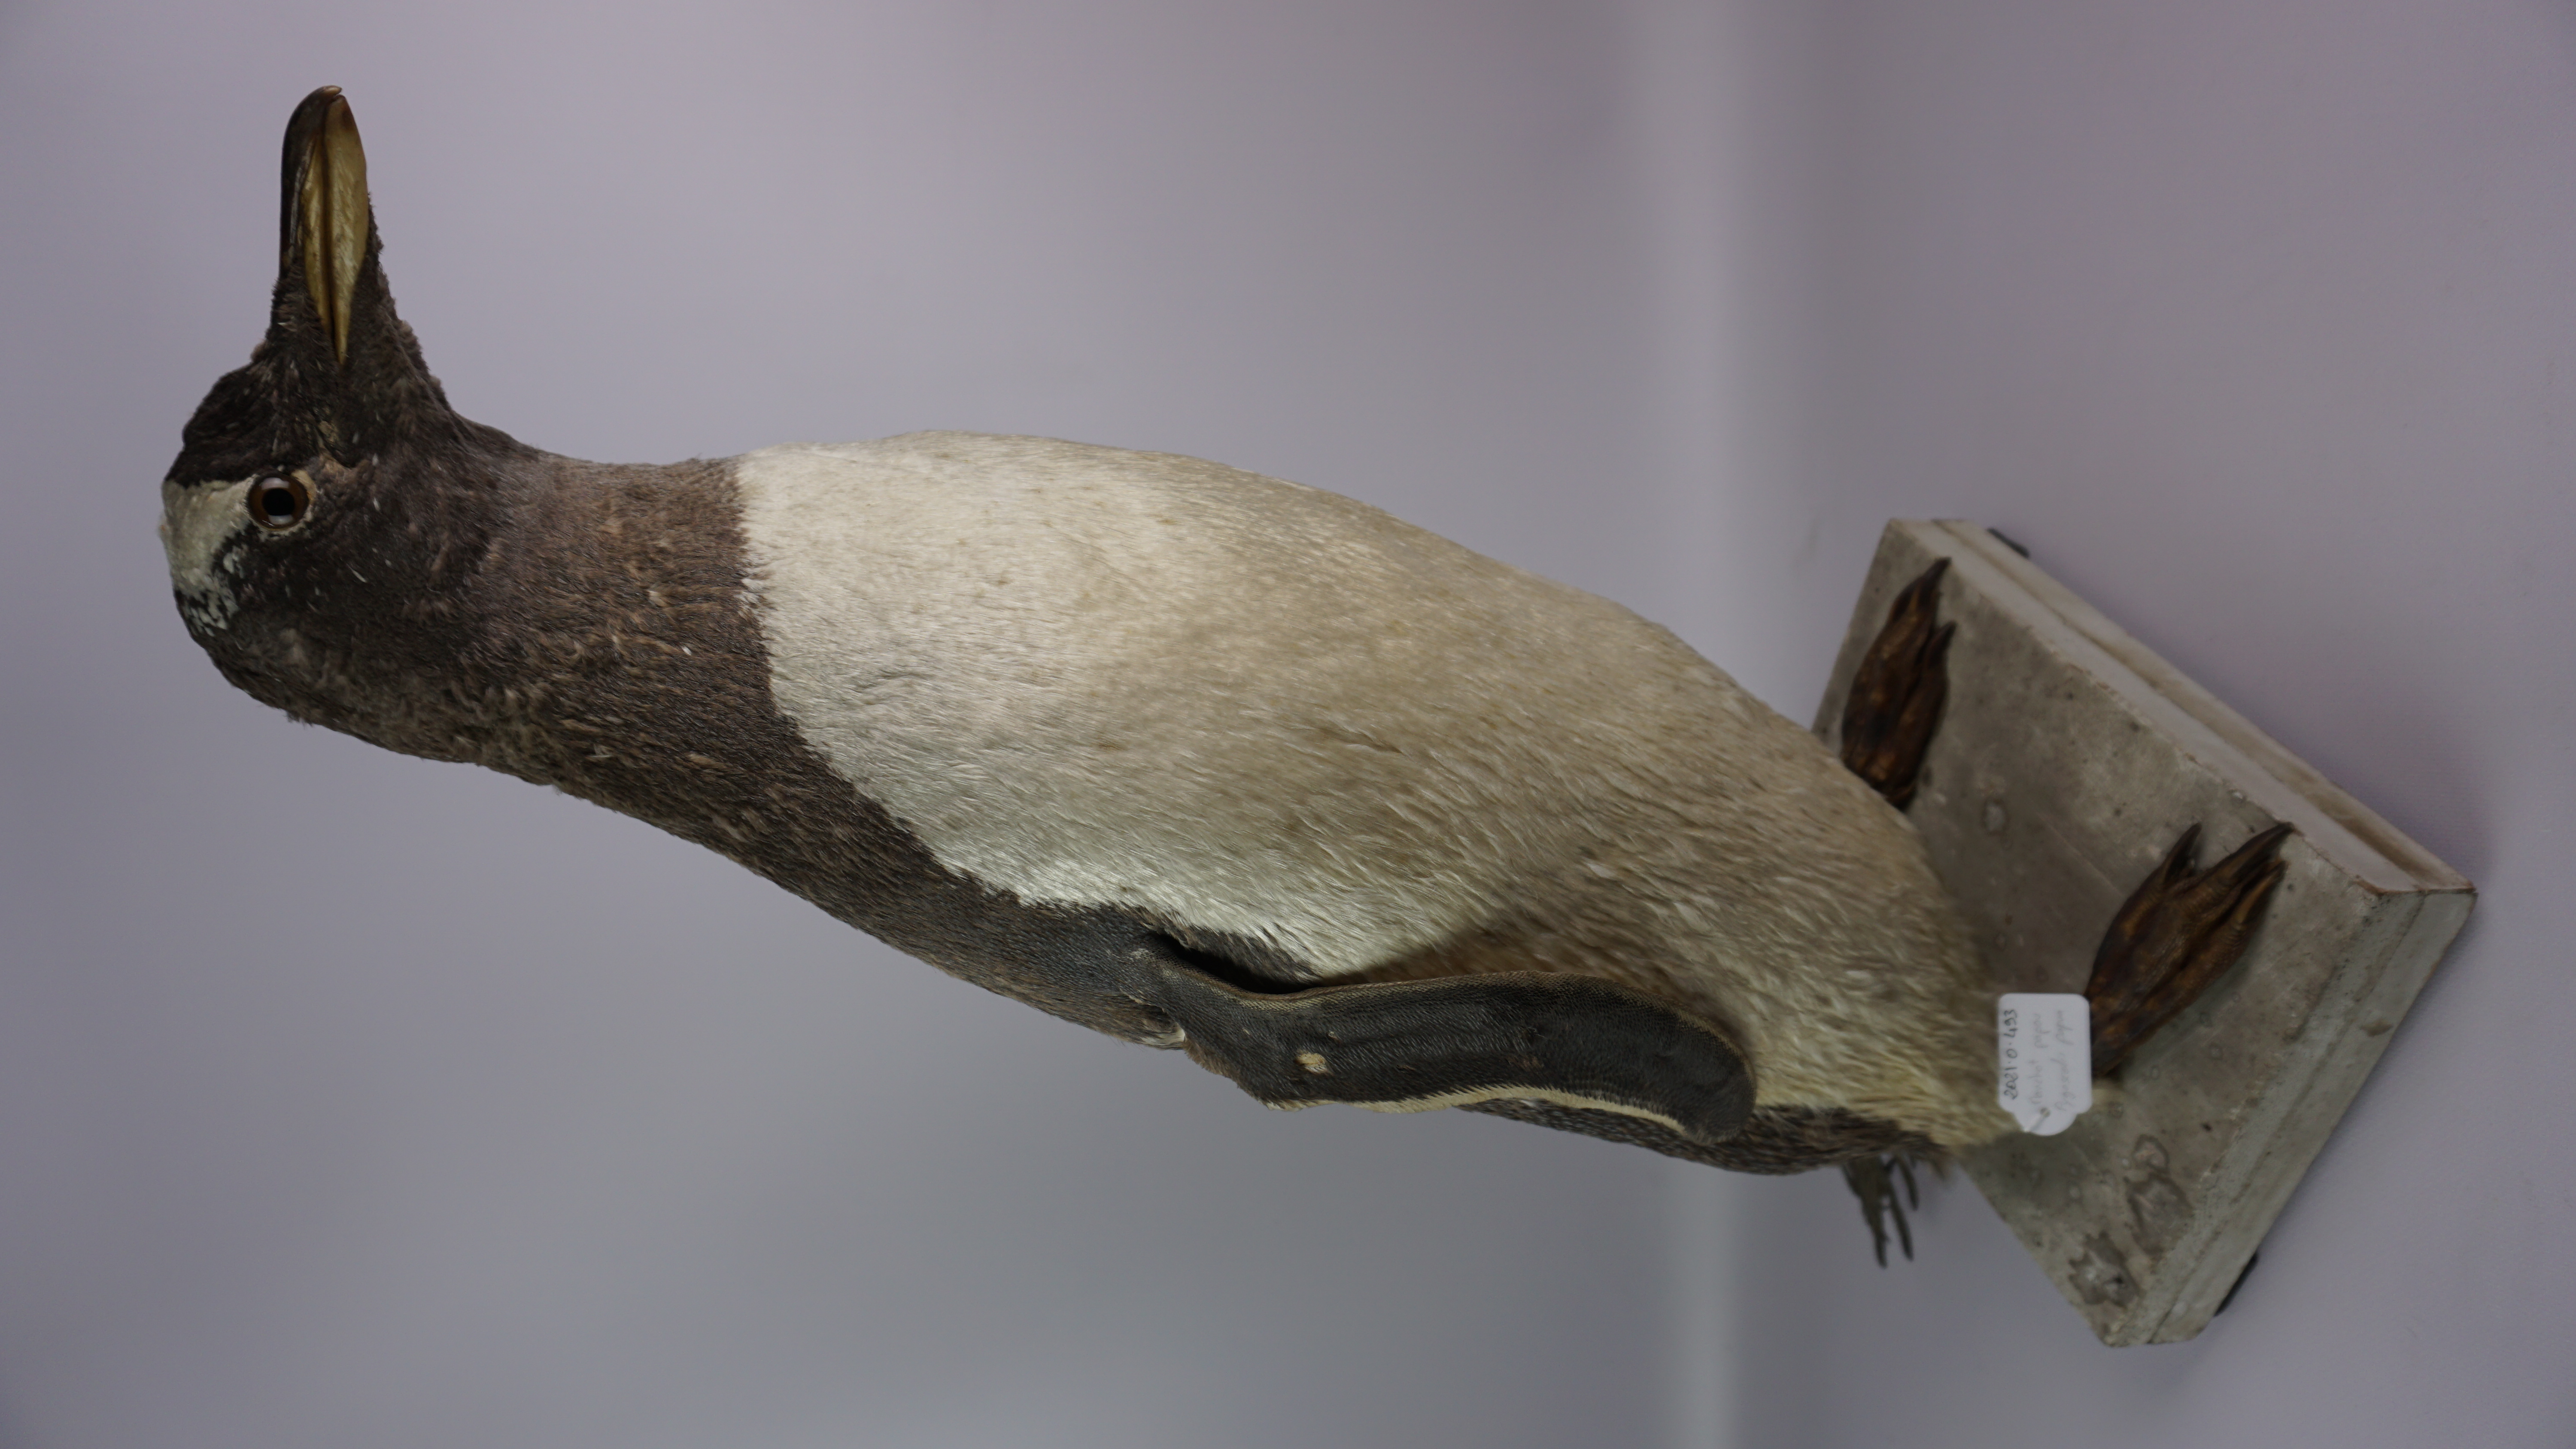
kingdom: Animalia
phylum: Chordata
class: Aves
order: Sphenisciformes
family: Spheniscidae
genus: Pygoscelis
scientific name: Pygoscelis papua
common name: Gentoo penguin
